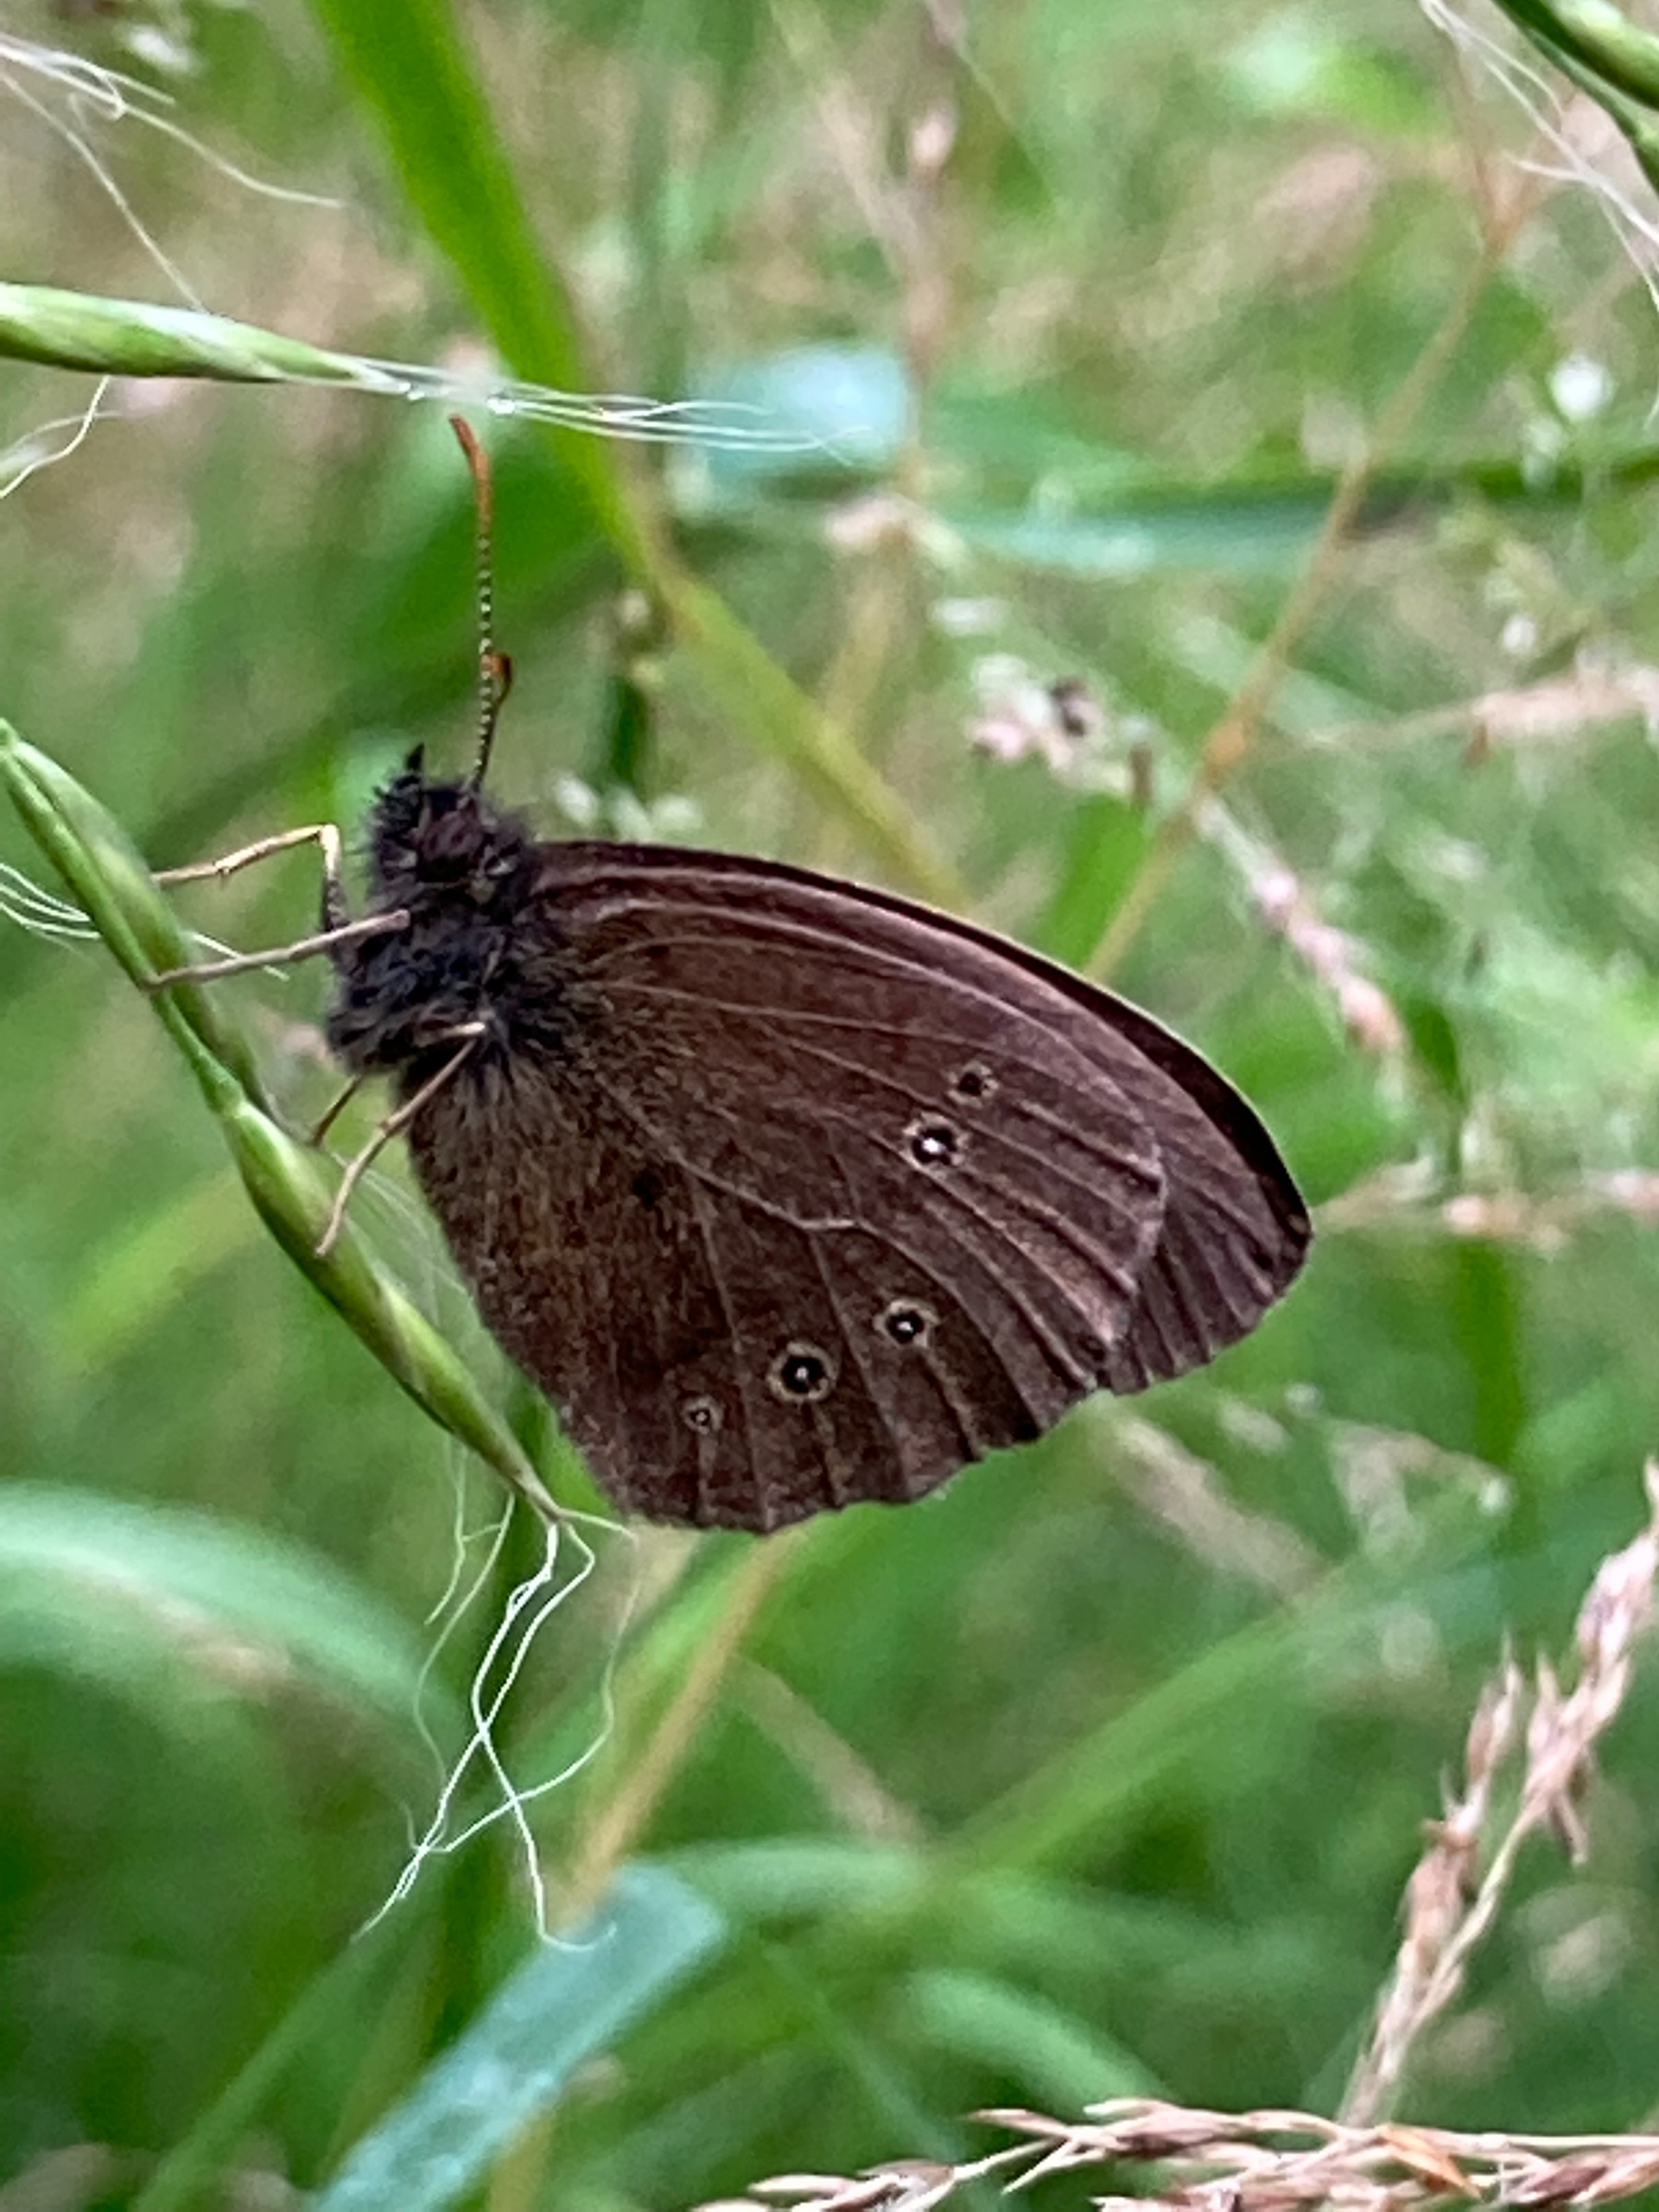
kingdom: Animalia
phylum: Arthropoda
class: Insecta
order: Lepidoptera
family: Nymphalidae
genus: Aphantopus
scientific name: Aphantopus hyperantus
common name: Engrandøje
